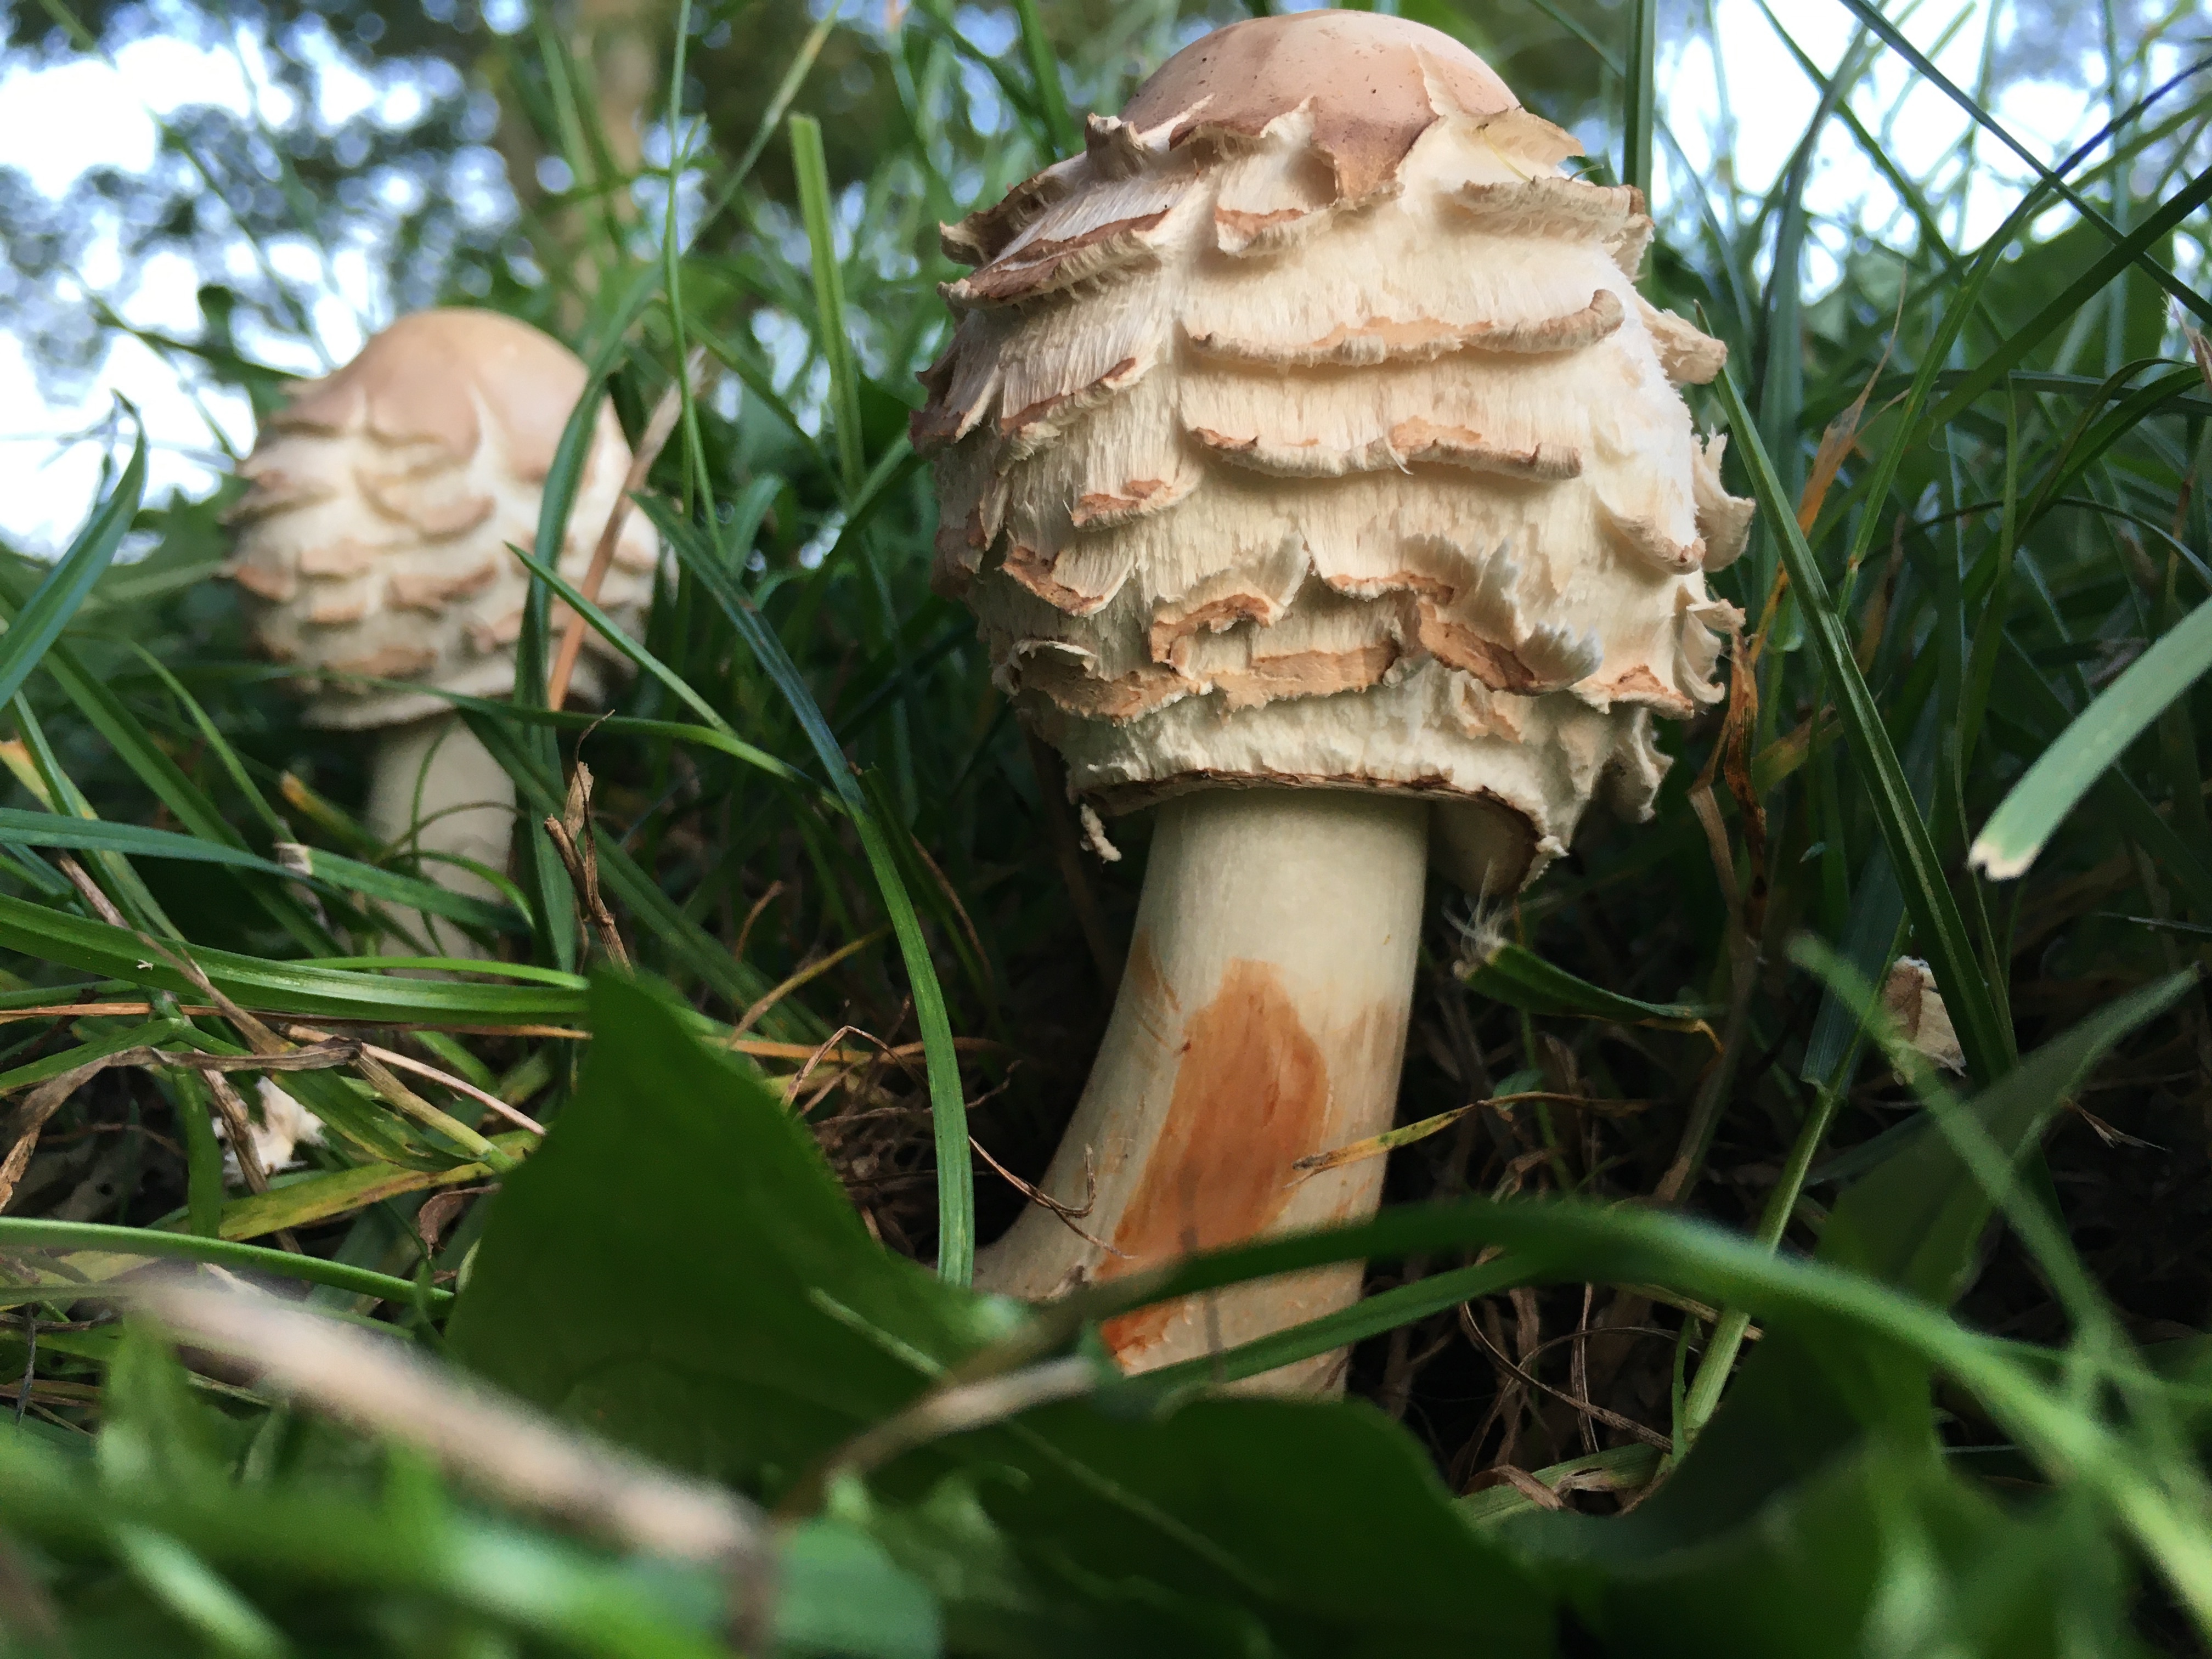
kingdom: Fungi
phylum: Basidiomycota
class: Agaricomycetes
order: Agaricales
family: Agaricaceae
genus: Chlorophyllum
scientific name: Chlorophyllum rhacodes
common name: ægte rabarberhat
